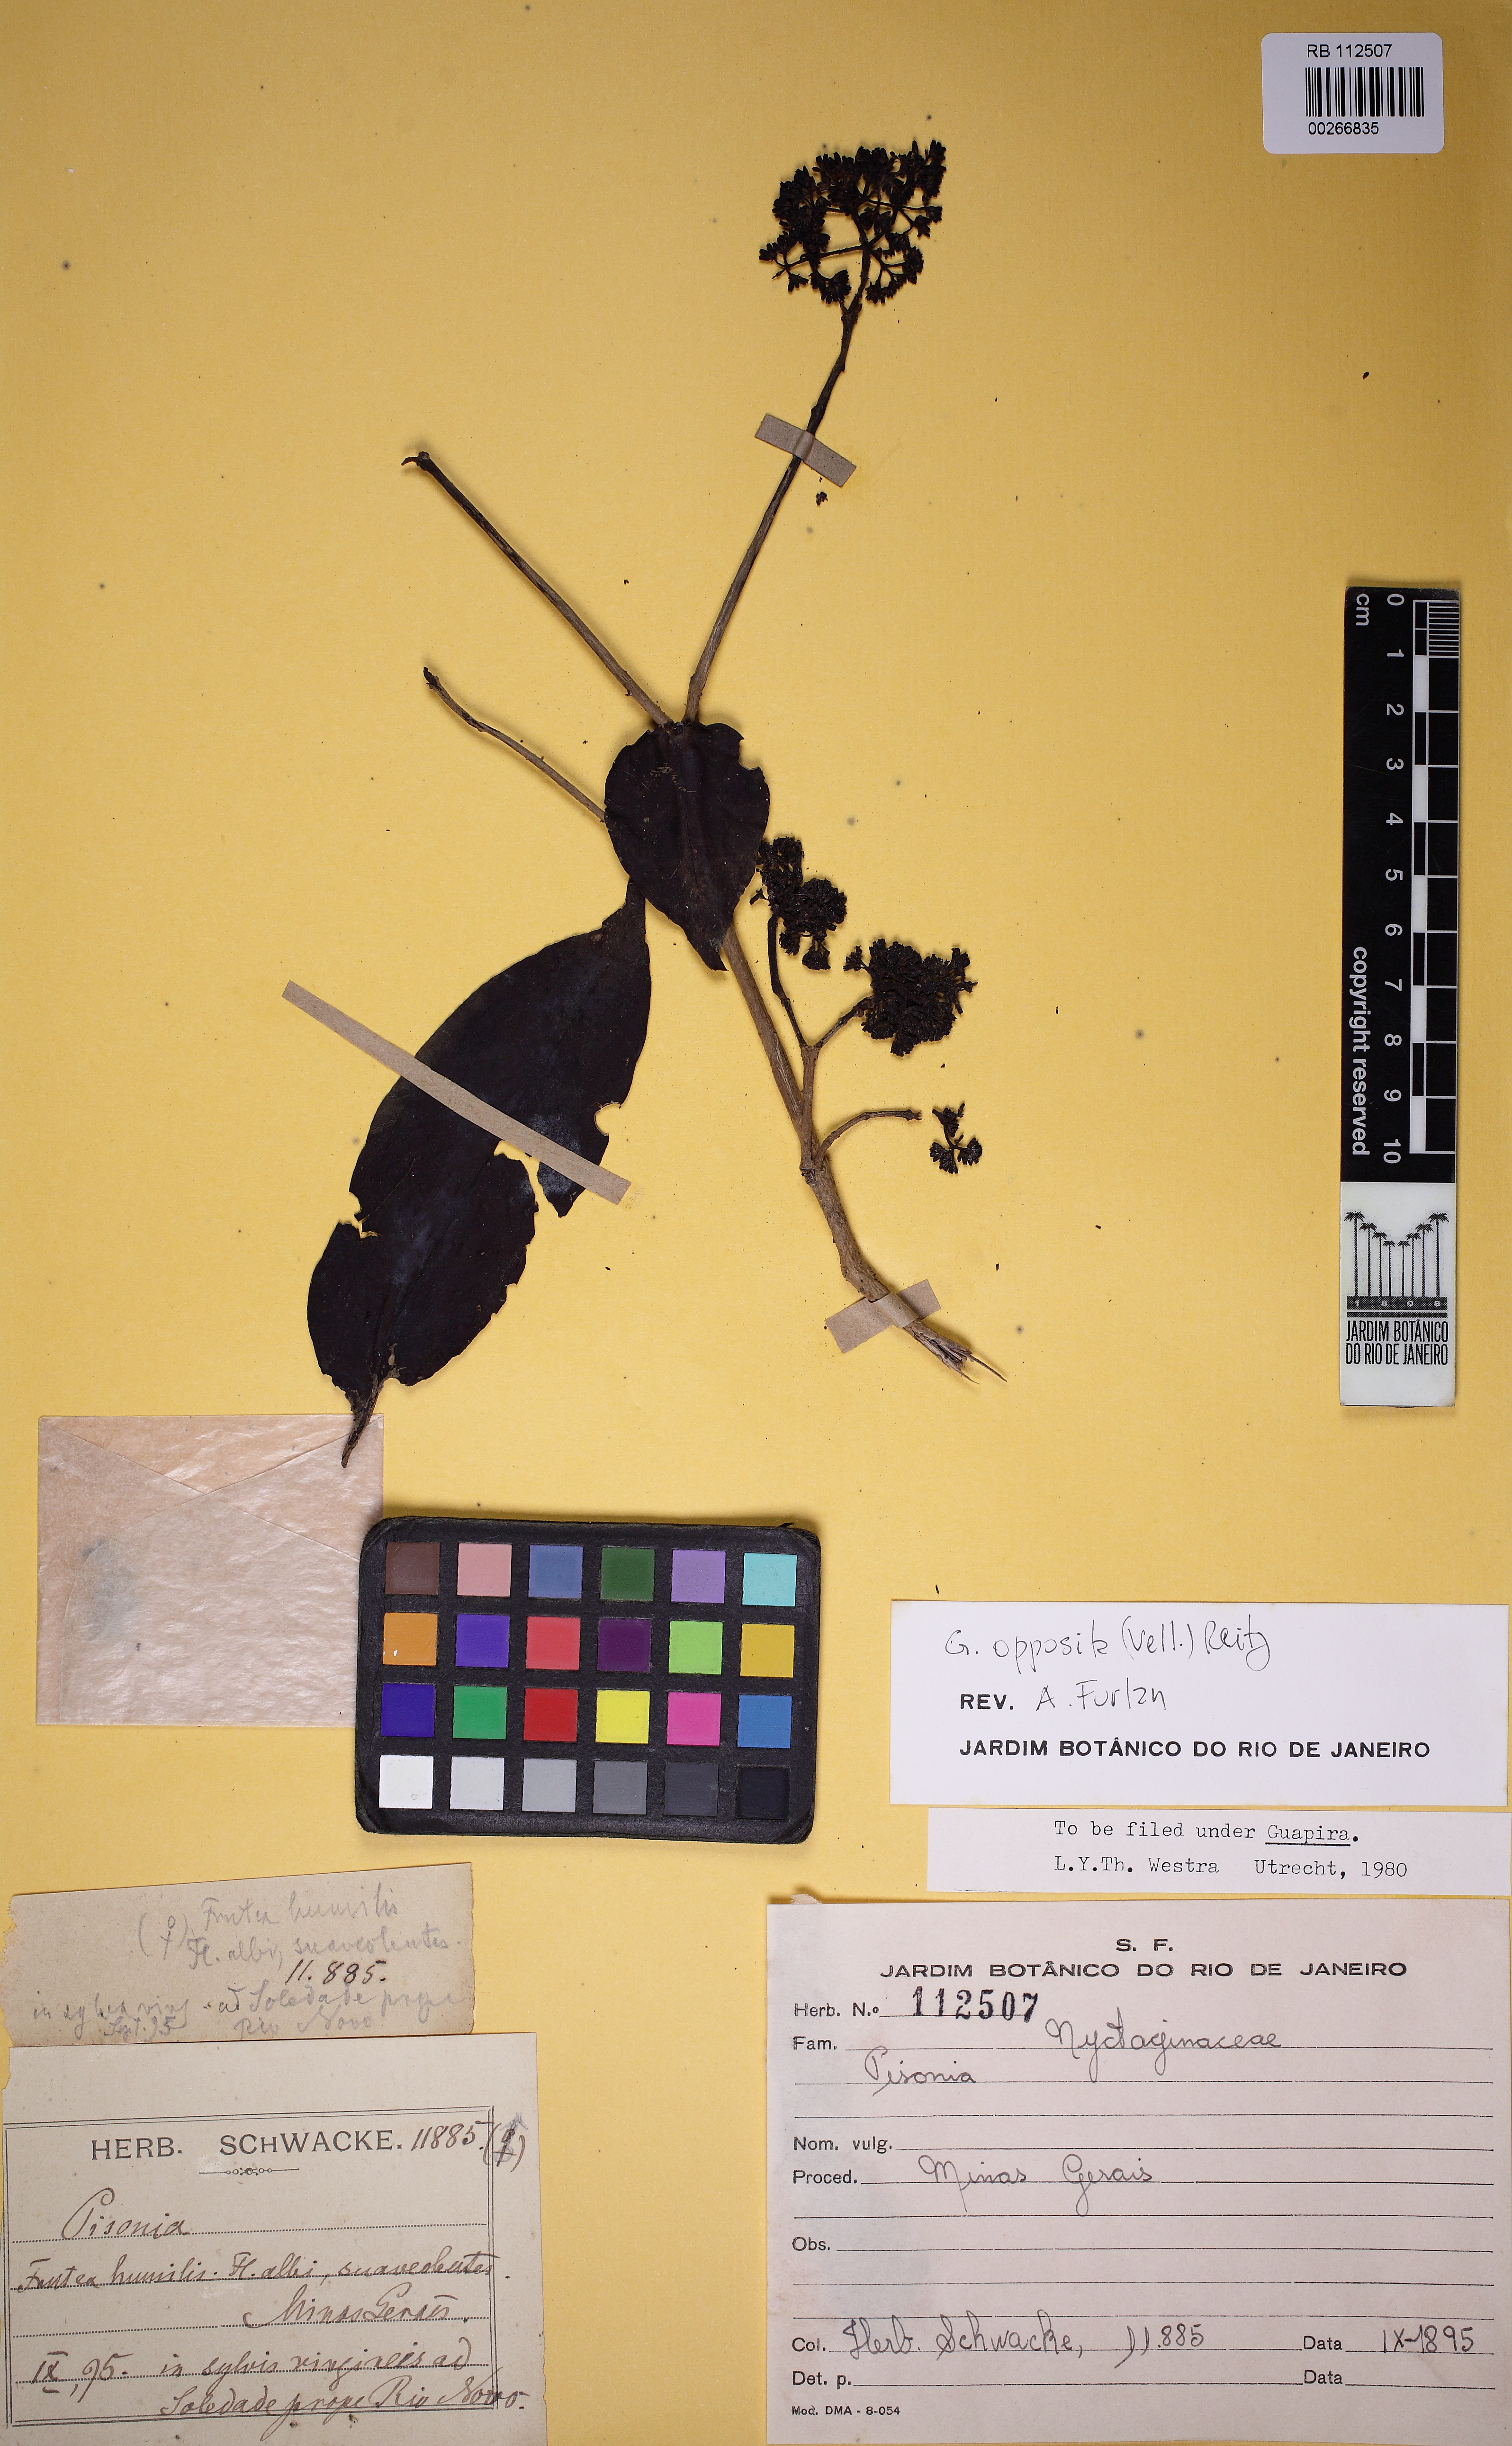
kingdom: Plantae
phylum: Tracheophyta
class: Magnoliopsida
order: Caryophyllales
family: Nyctaginaceae
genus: Guapira
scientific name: Guapira opposita
